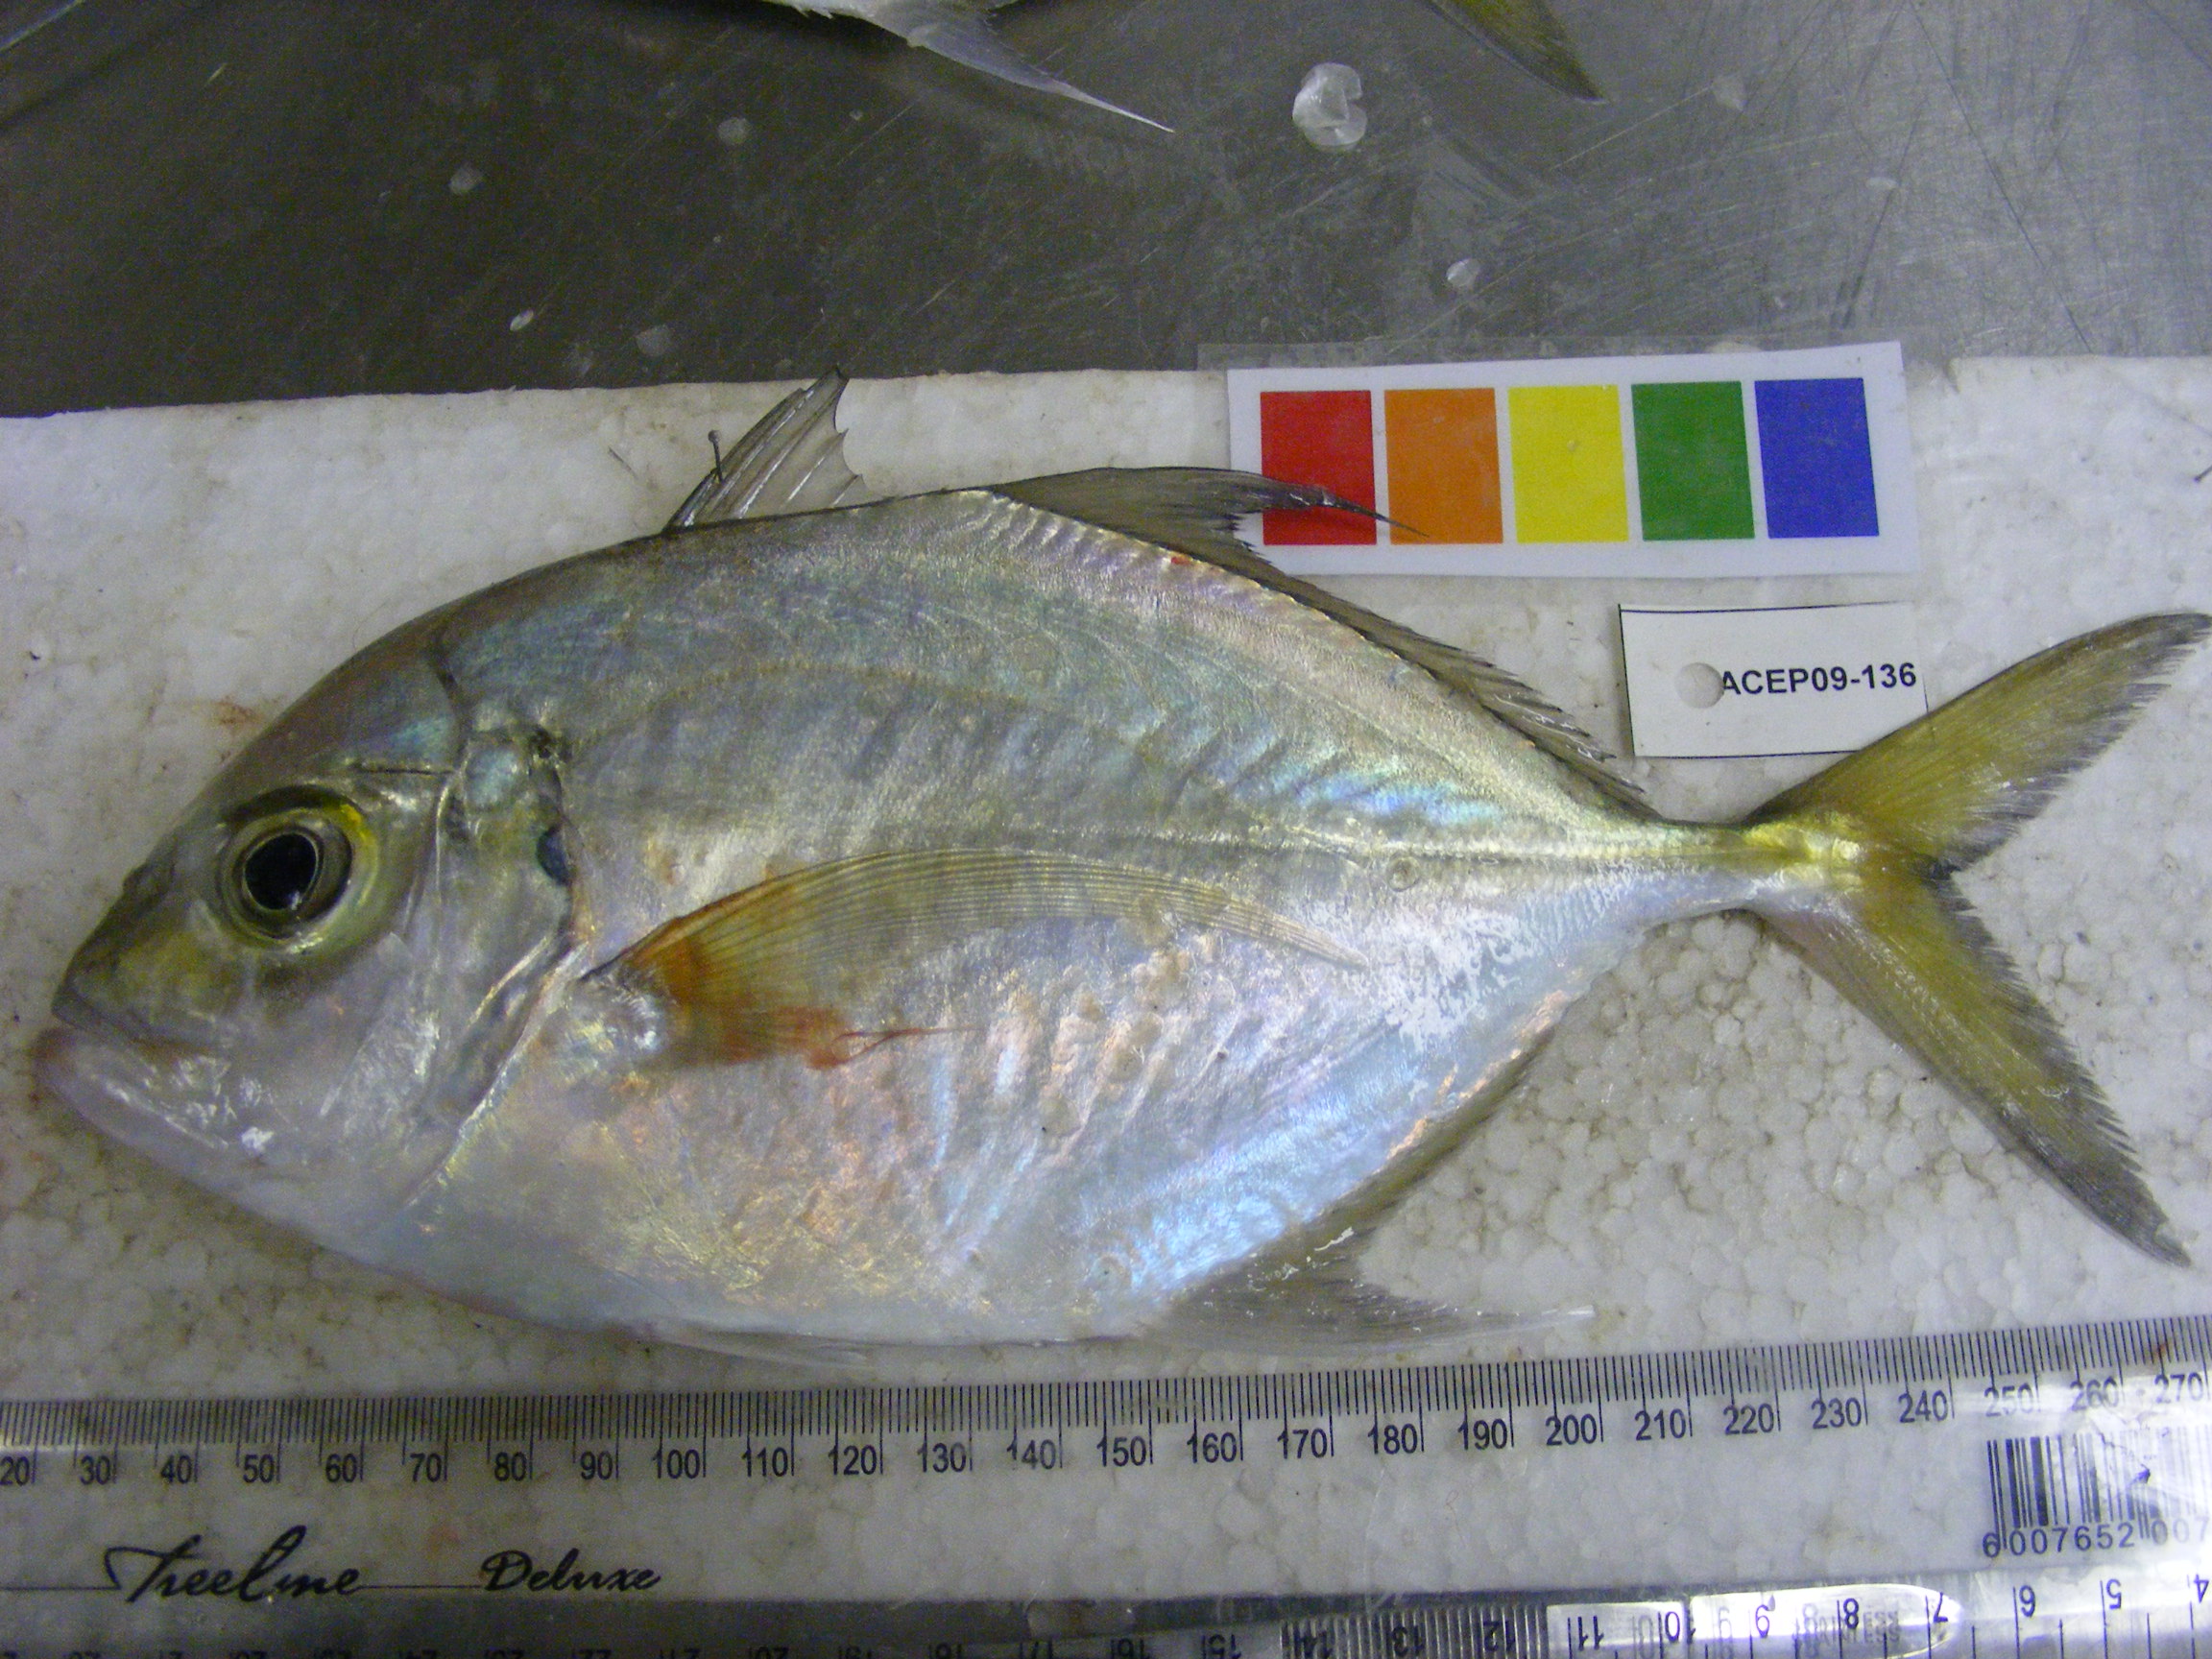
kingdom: Animalia
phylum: Chordata
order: Perciformes
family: Carangidae
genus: Carangoides
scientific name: Carangoides coeruleopinnatus
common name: Coastal trevally
